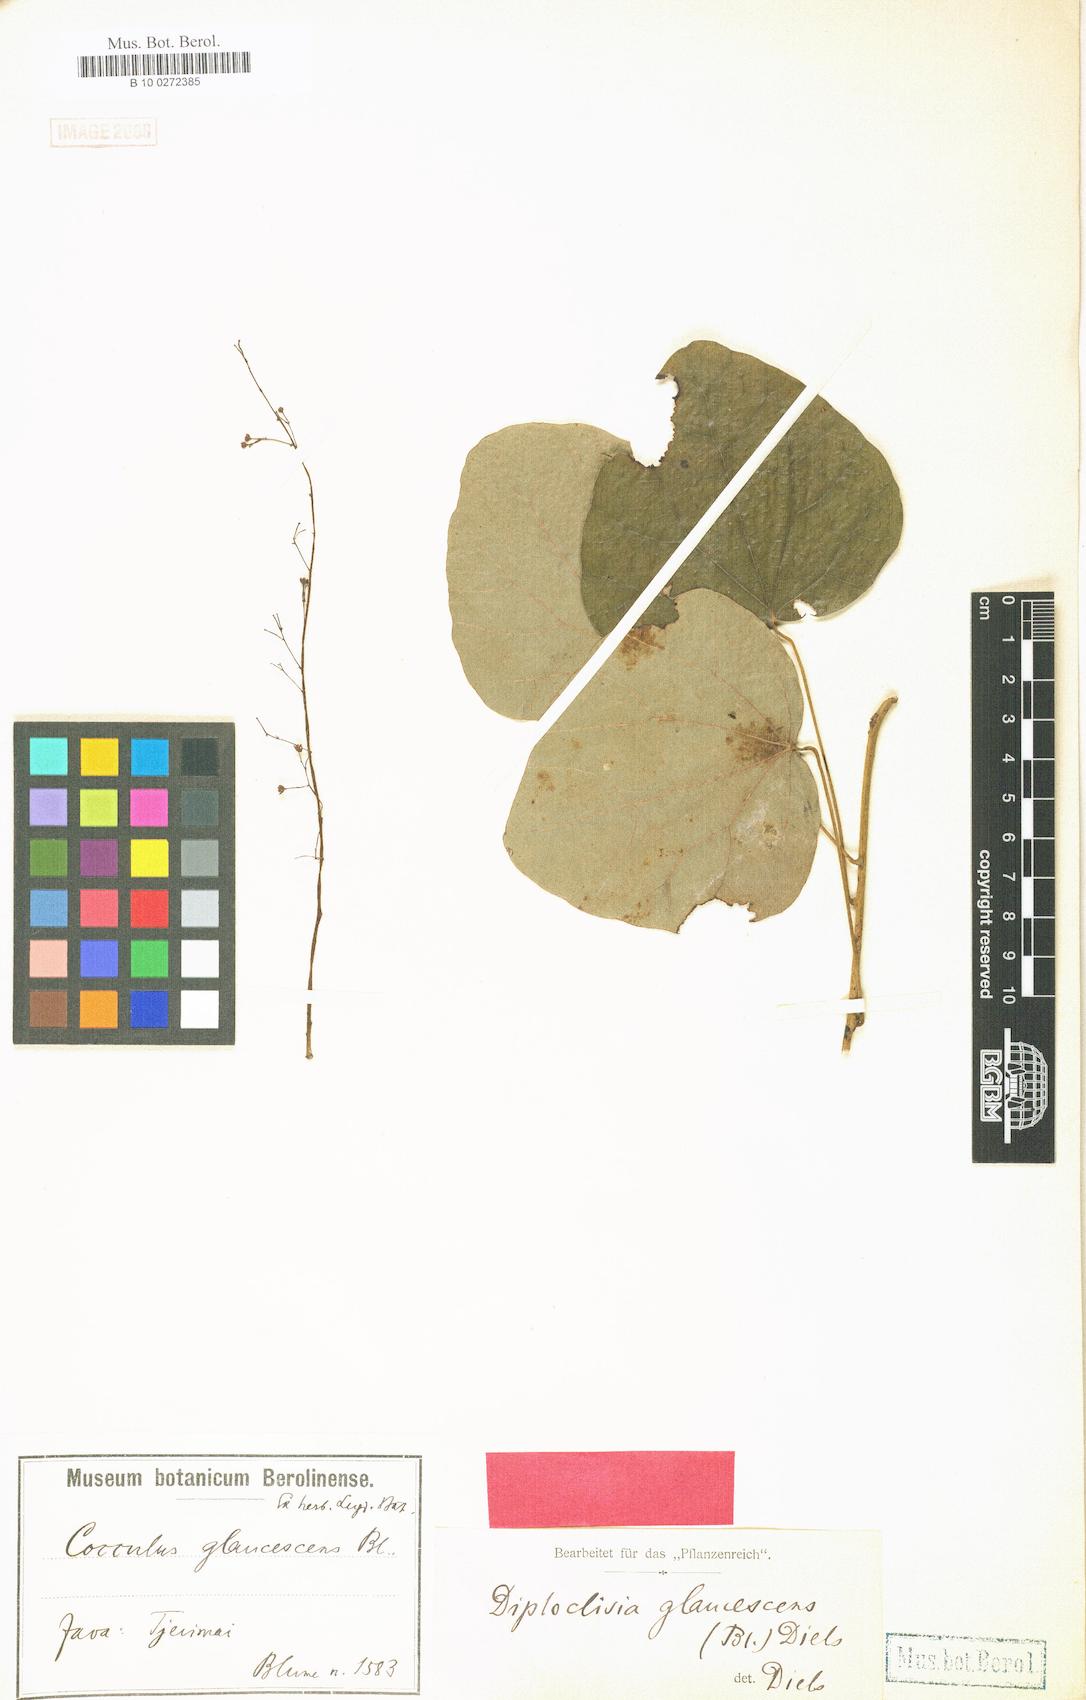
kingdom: Plantae
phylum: Tracheophyta
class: Magnoliopsida
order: Ranunculales
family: Menispermaceae
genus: Diploclisia
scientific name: Diploclisia glaucescens
